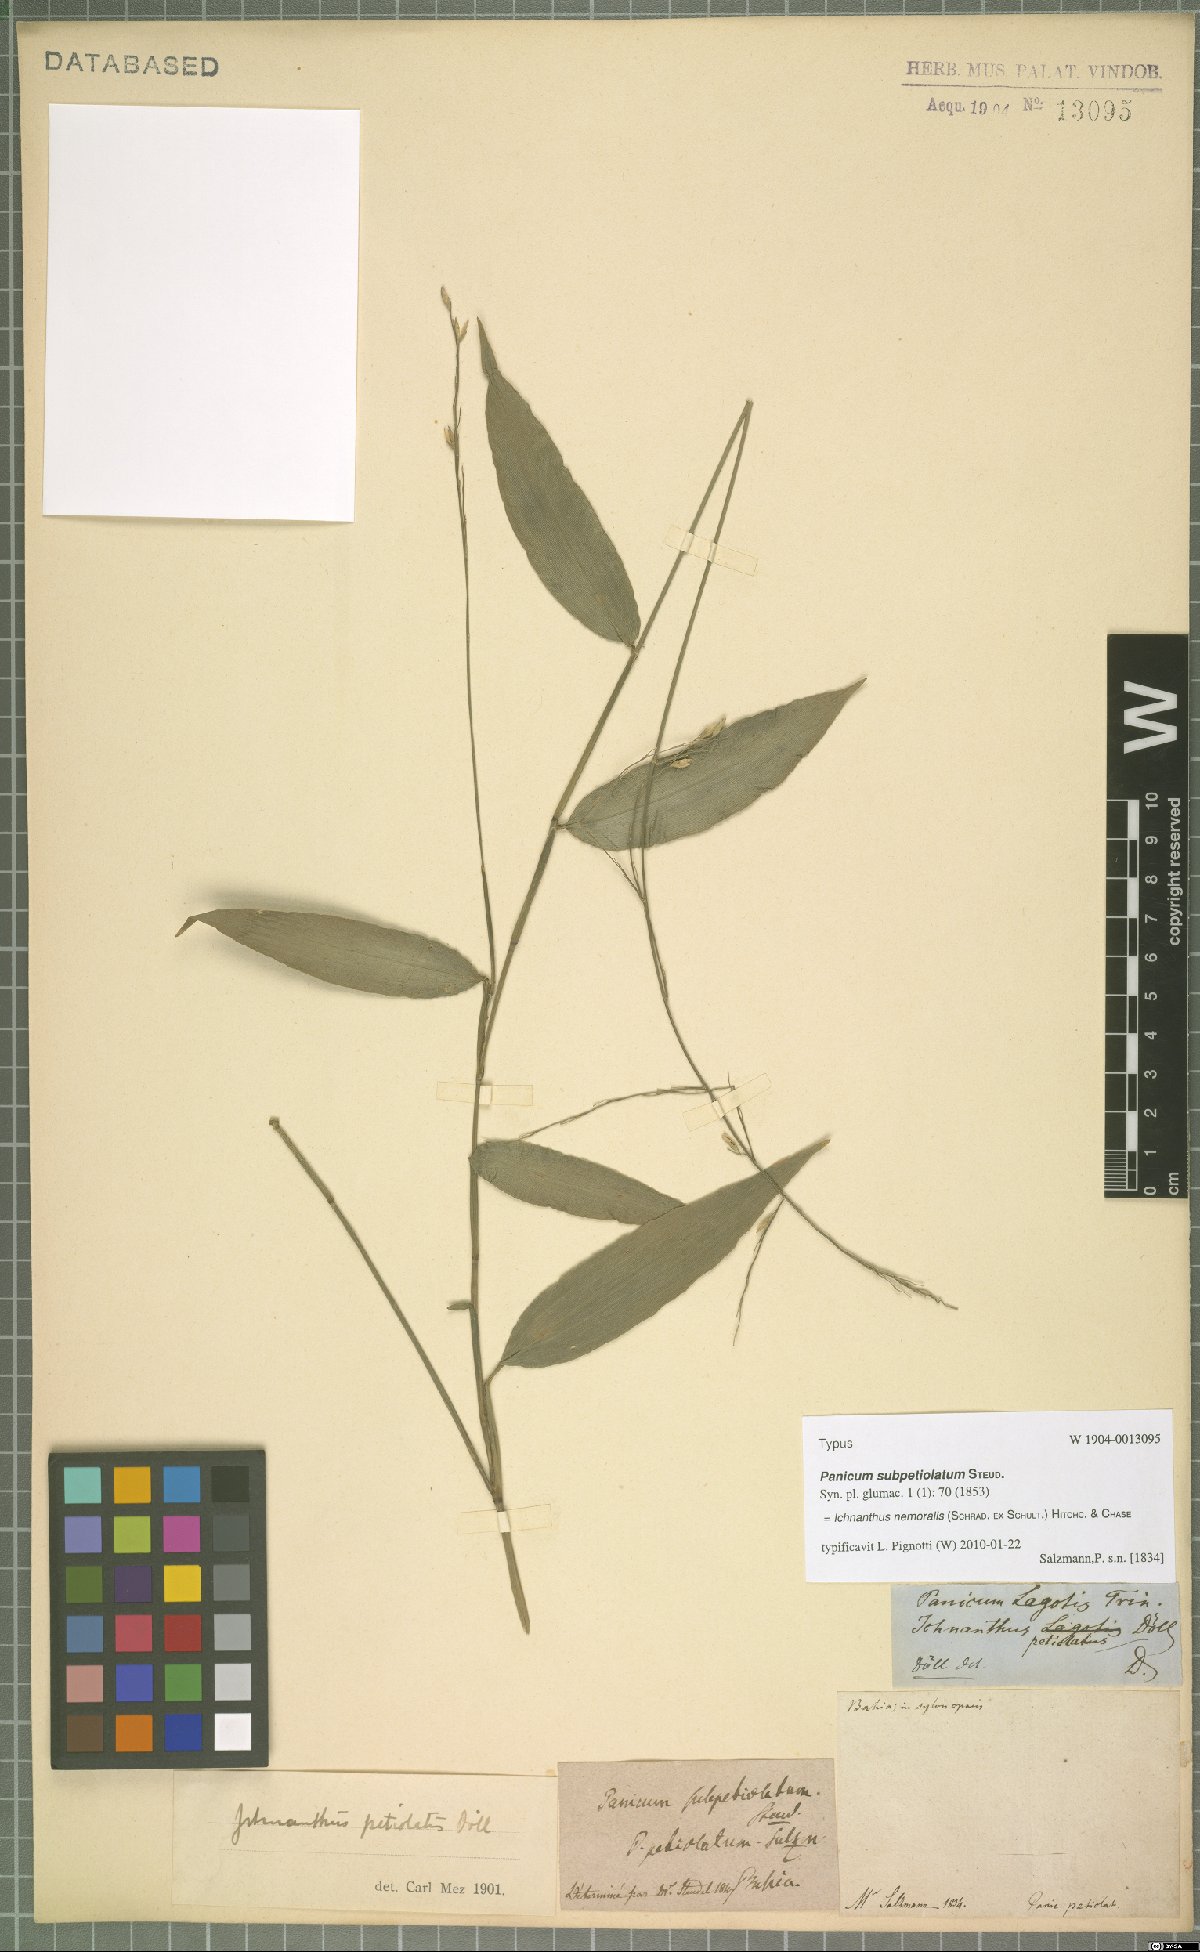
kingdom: Plantae
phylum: Tracheophyta
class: Liliopsida
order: Poales
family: Poaceae
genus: Ichnanthus
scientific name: Ichnanthus nemoralis
